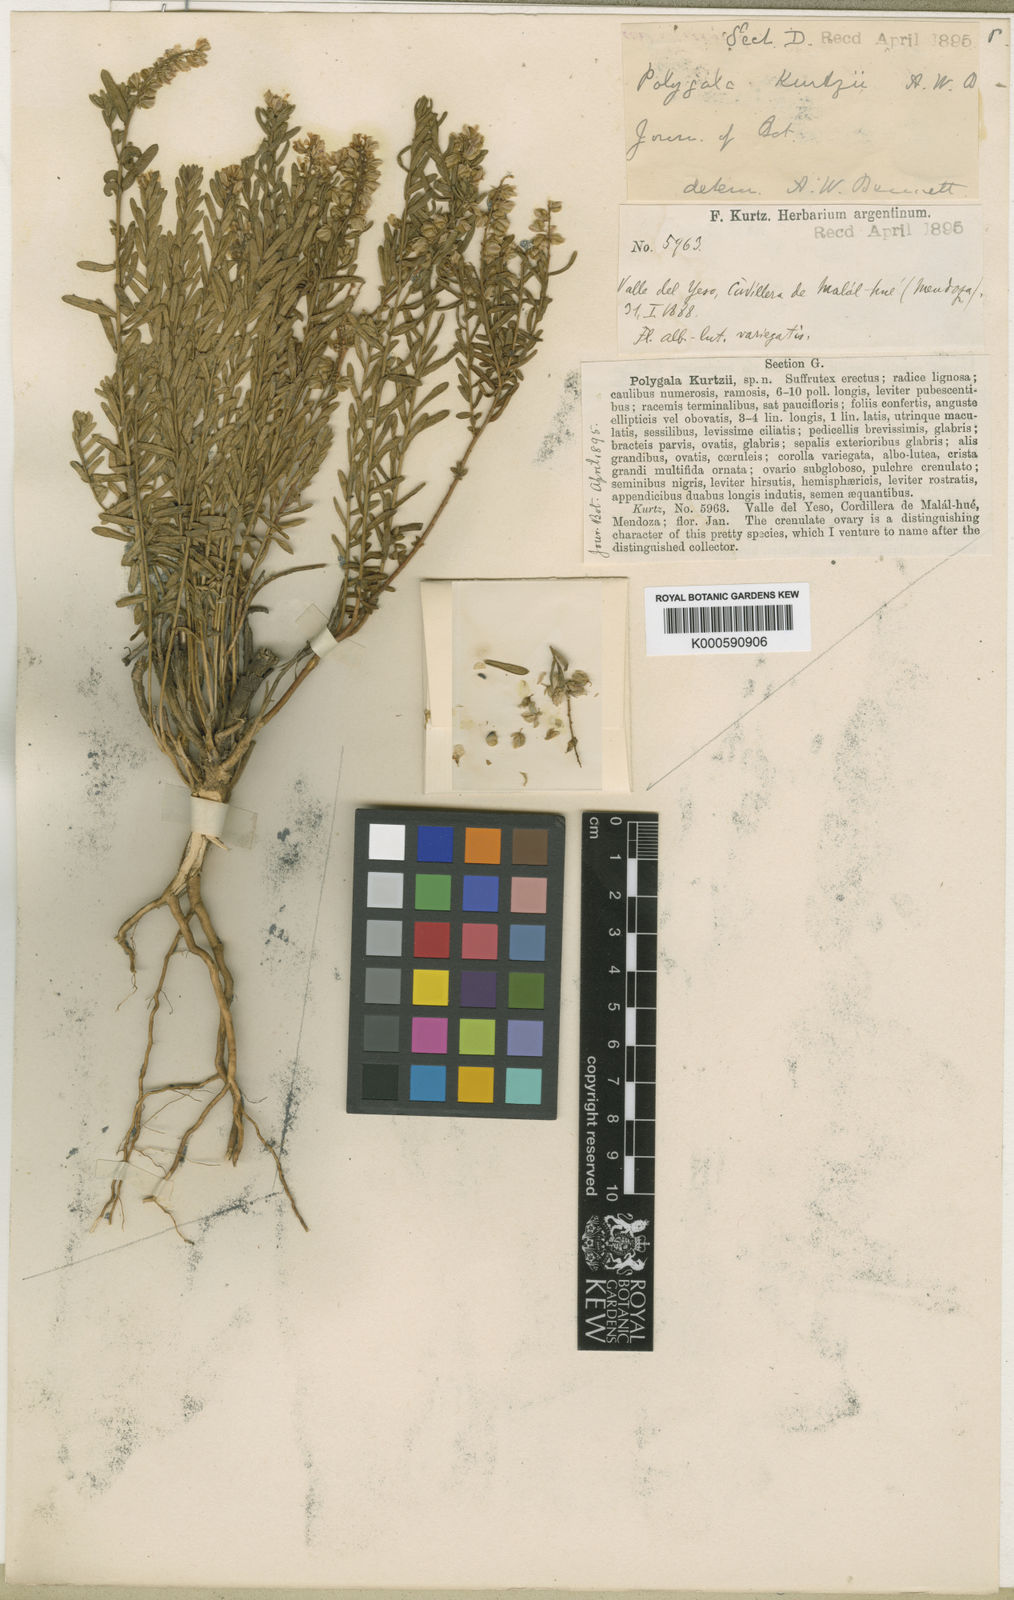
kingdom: Plantae
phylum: Tracheophyta
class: Magnoliopsida
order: Fabales
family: Polygalaceae
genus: Polygala
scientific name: Polygala kurtzii
